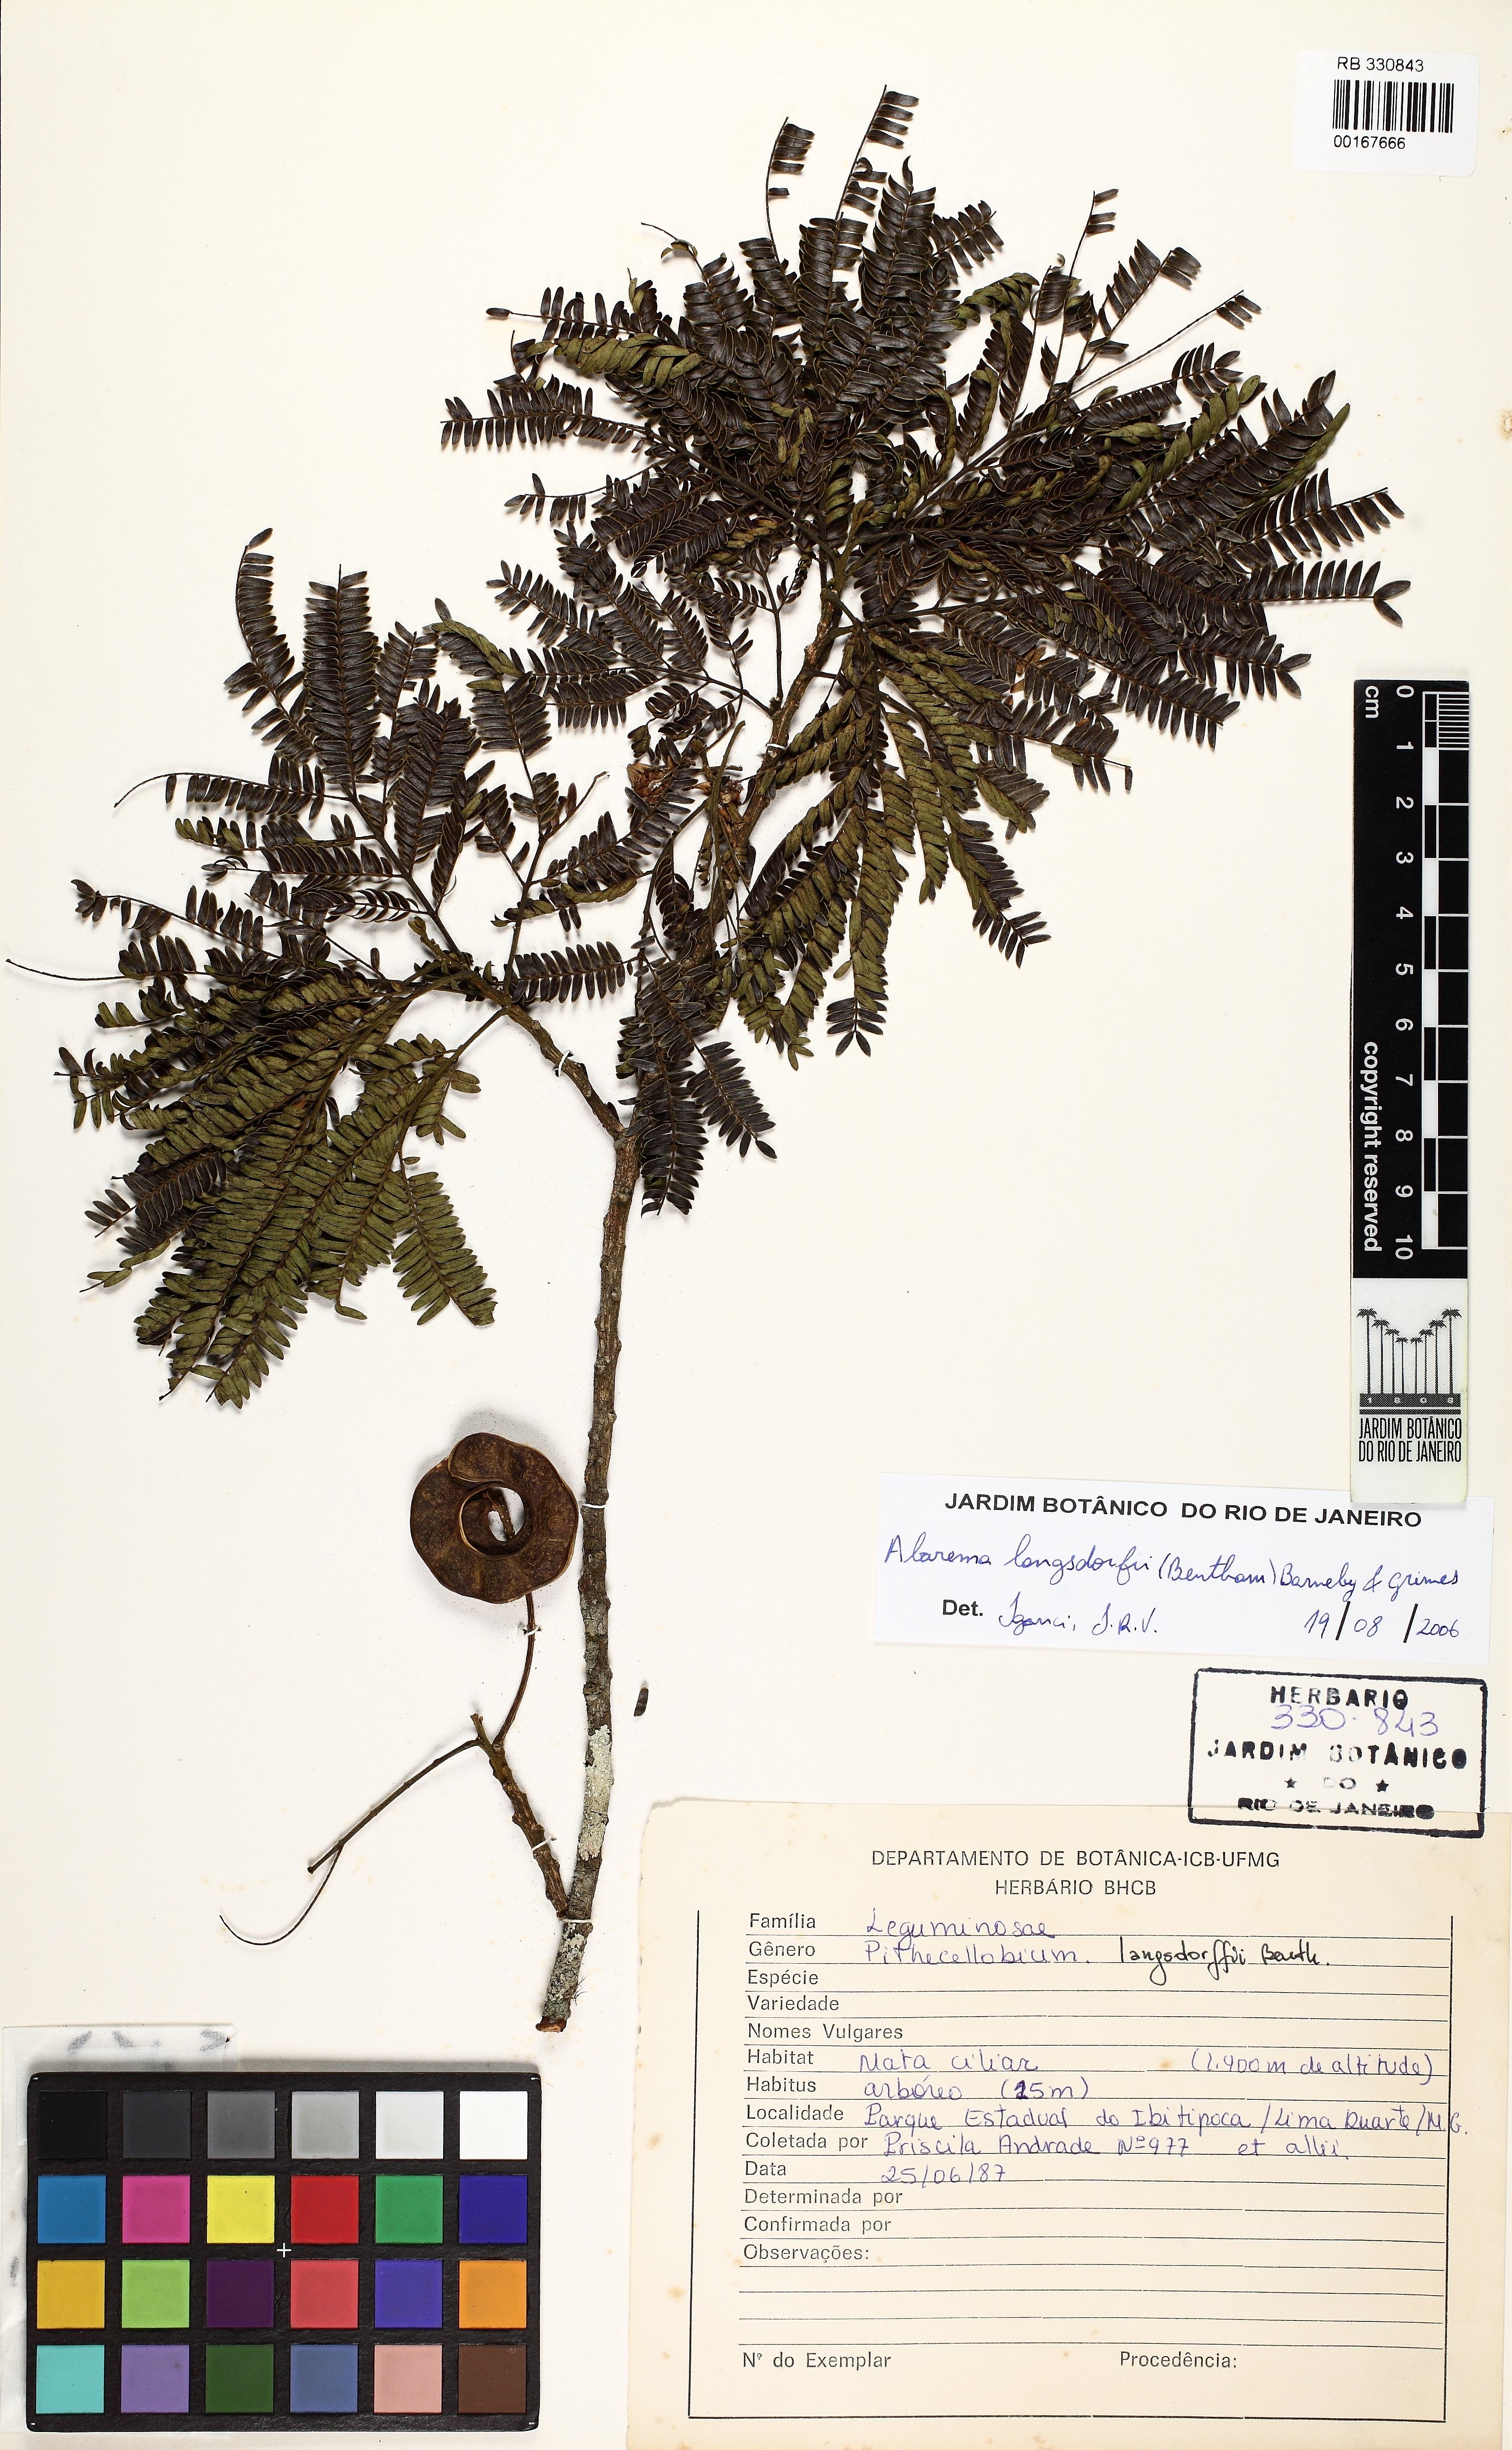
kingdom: Plantae
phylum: Tracheophyta
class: Magnoliopsida
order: Fabales
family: Fabaceae
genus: Jupunba
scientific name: Jupunba langsdorffii
